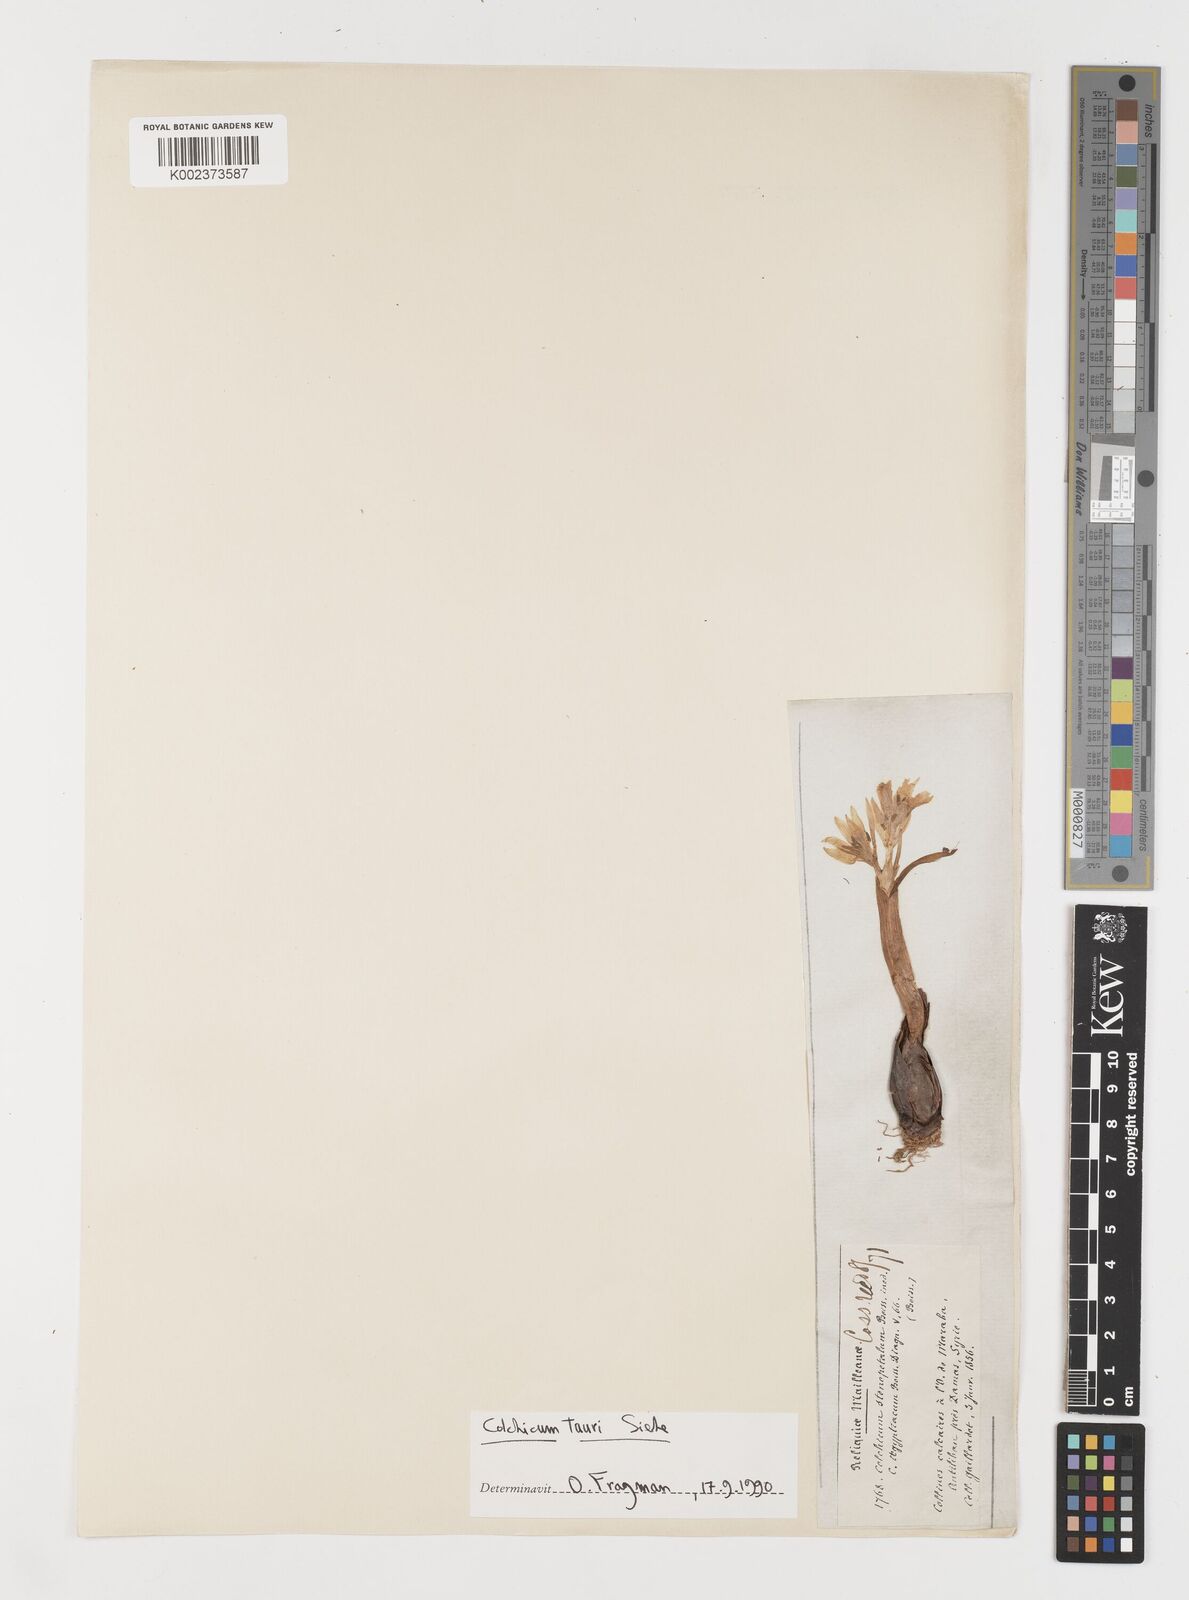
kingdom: Plantae
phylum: Tracheophyta
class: Liliopsida
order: Liliales
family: Colchicaceae
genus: Colchicum
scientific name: Colchicum serpentinum
